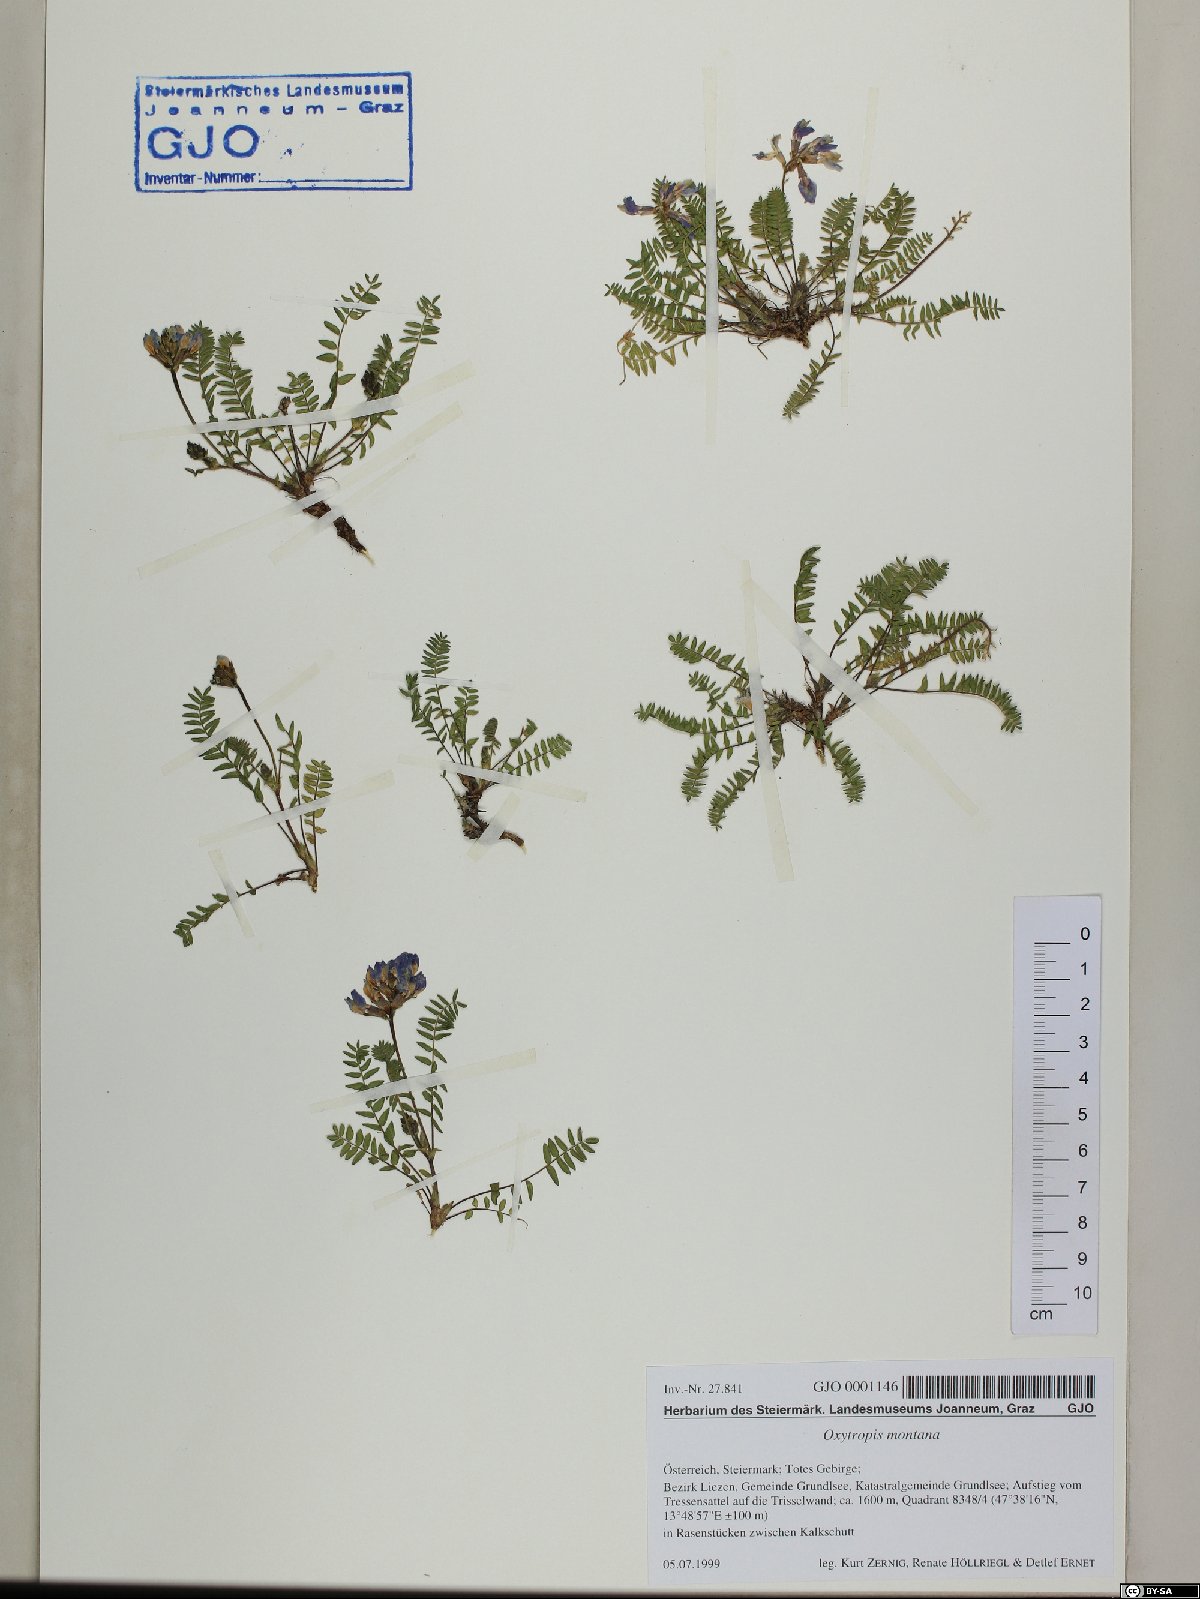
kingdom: Plantae
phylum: Tracheophyta
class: Magnoliopsida
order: Fabales
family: Fabaceae
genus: Oxytropis
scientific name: Oxytropis montana
